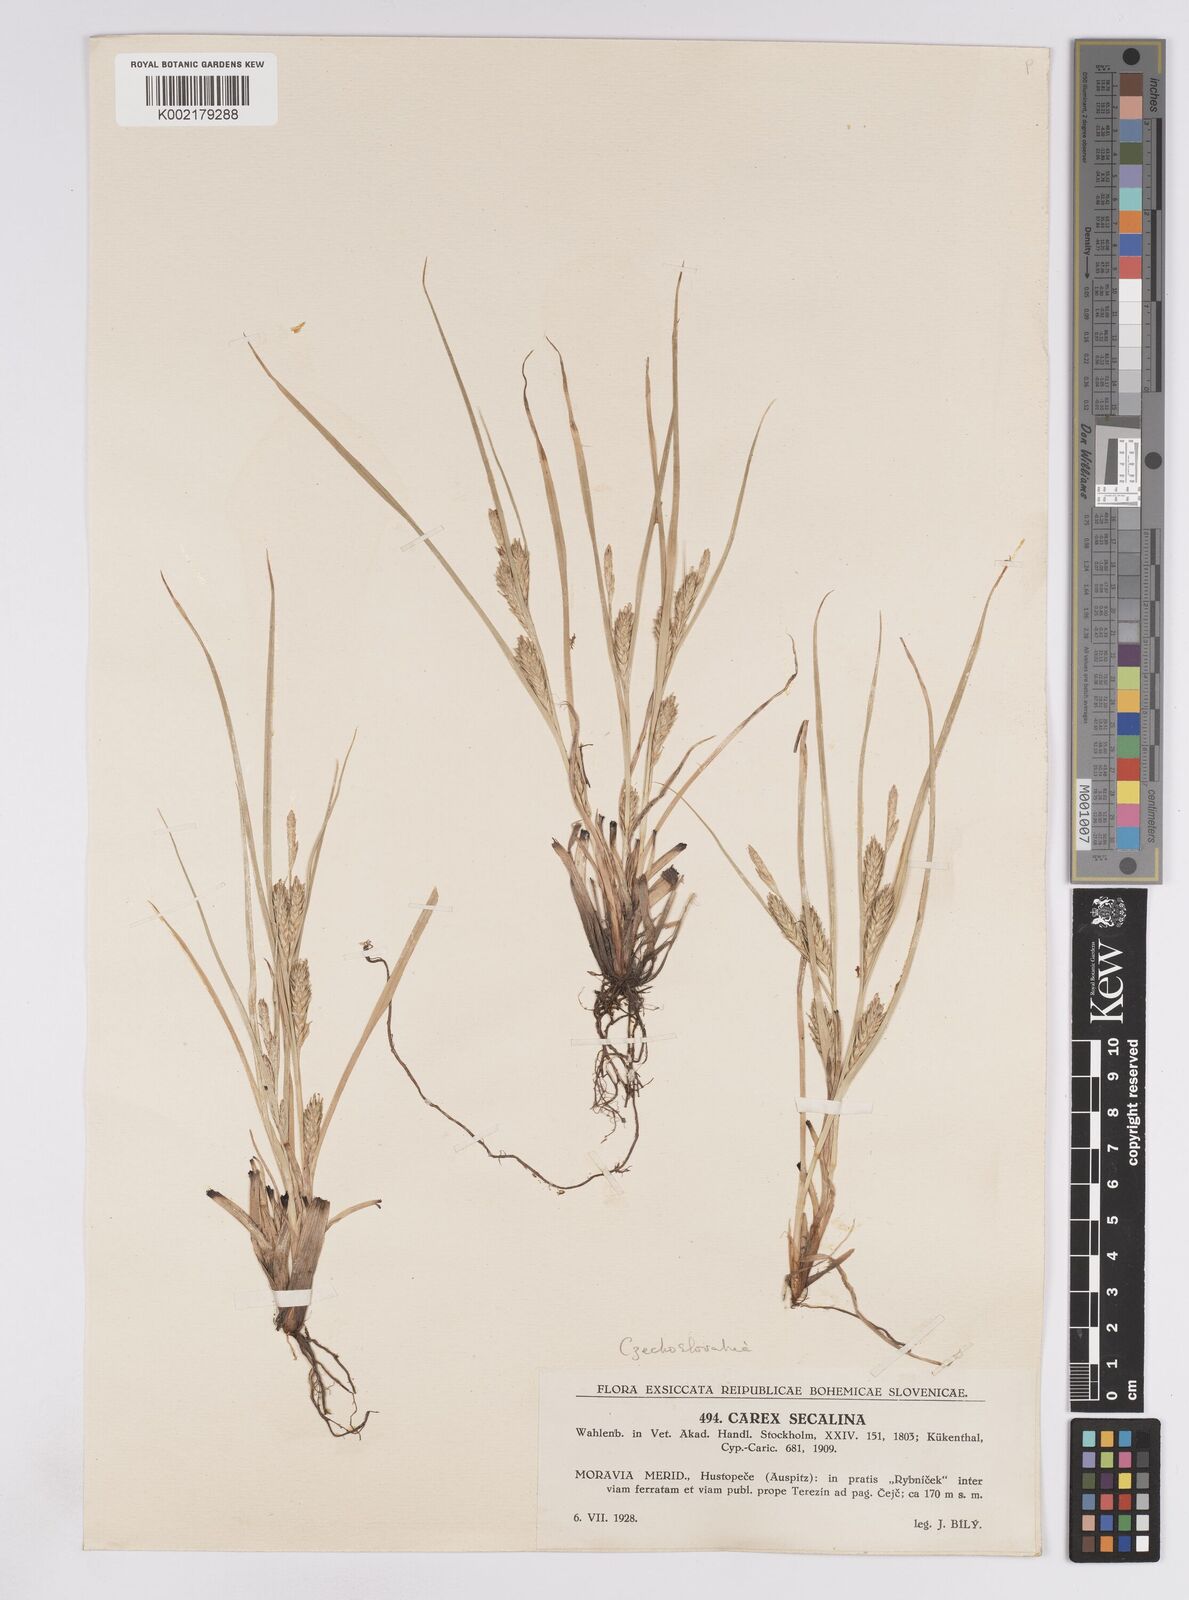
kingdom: Plantae
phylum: Tracheophyta
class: Liliopsida
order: Poales
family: Cyperaceae
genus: Carex
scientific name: Carex hordeistichos
